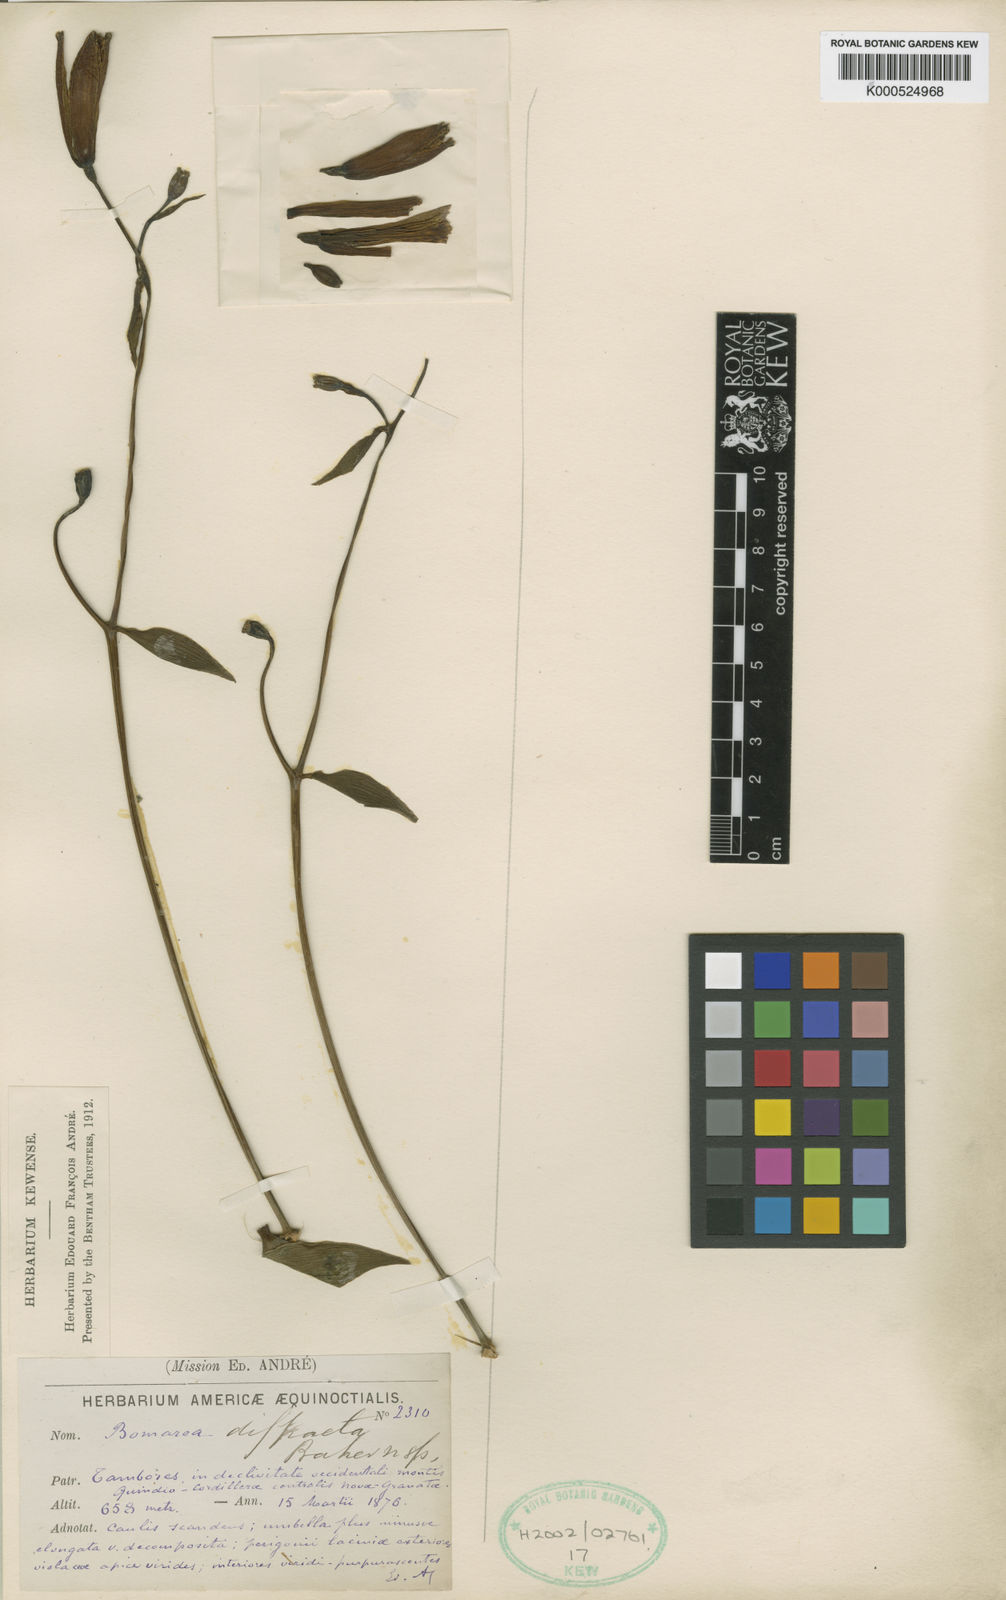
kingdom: Plantae
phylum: Tracheophyta
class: Liliopsida
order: Liliales
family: Alstroemeriaceae
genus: Bomarea
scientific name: Bomarea diffracta
